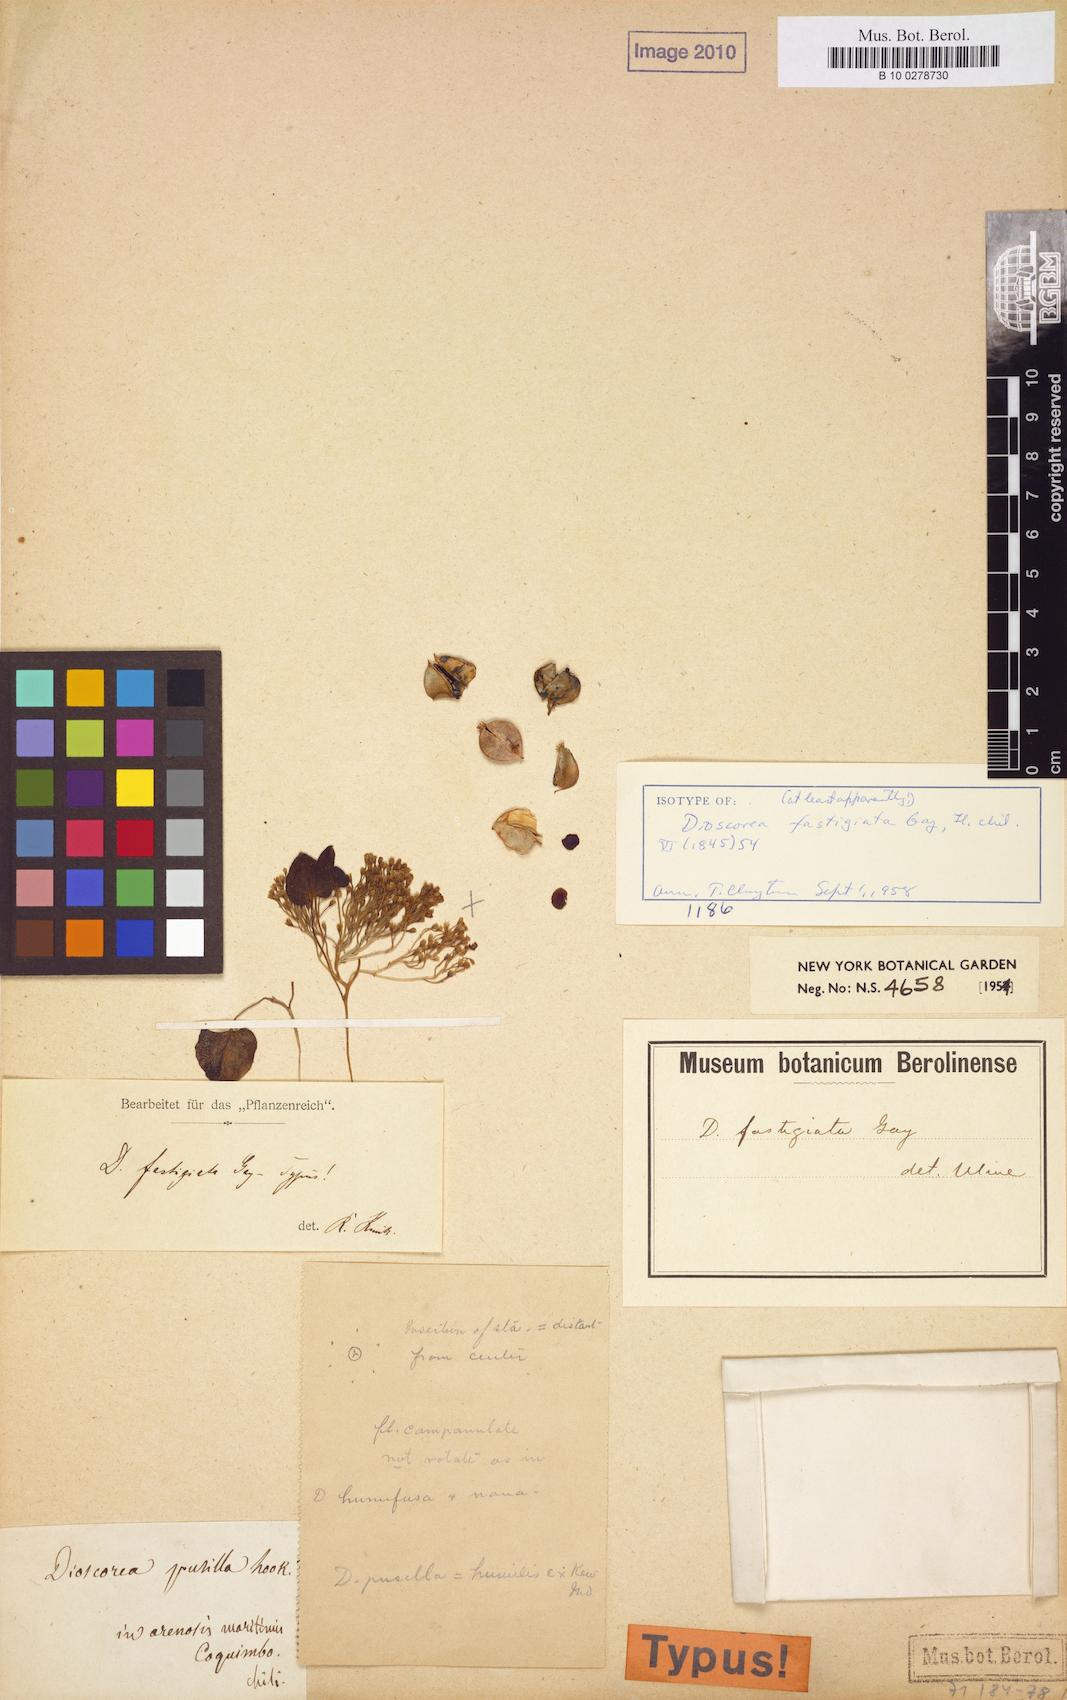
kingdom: Plantae
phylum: Tracheophyta
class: Liliopsida
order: Dioscoreales
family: Dioscoreaceae
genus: Dioscorea
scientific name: Dioscorea fastigiata
